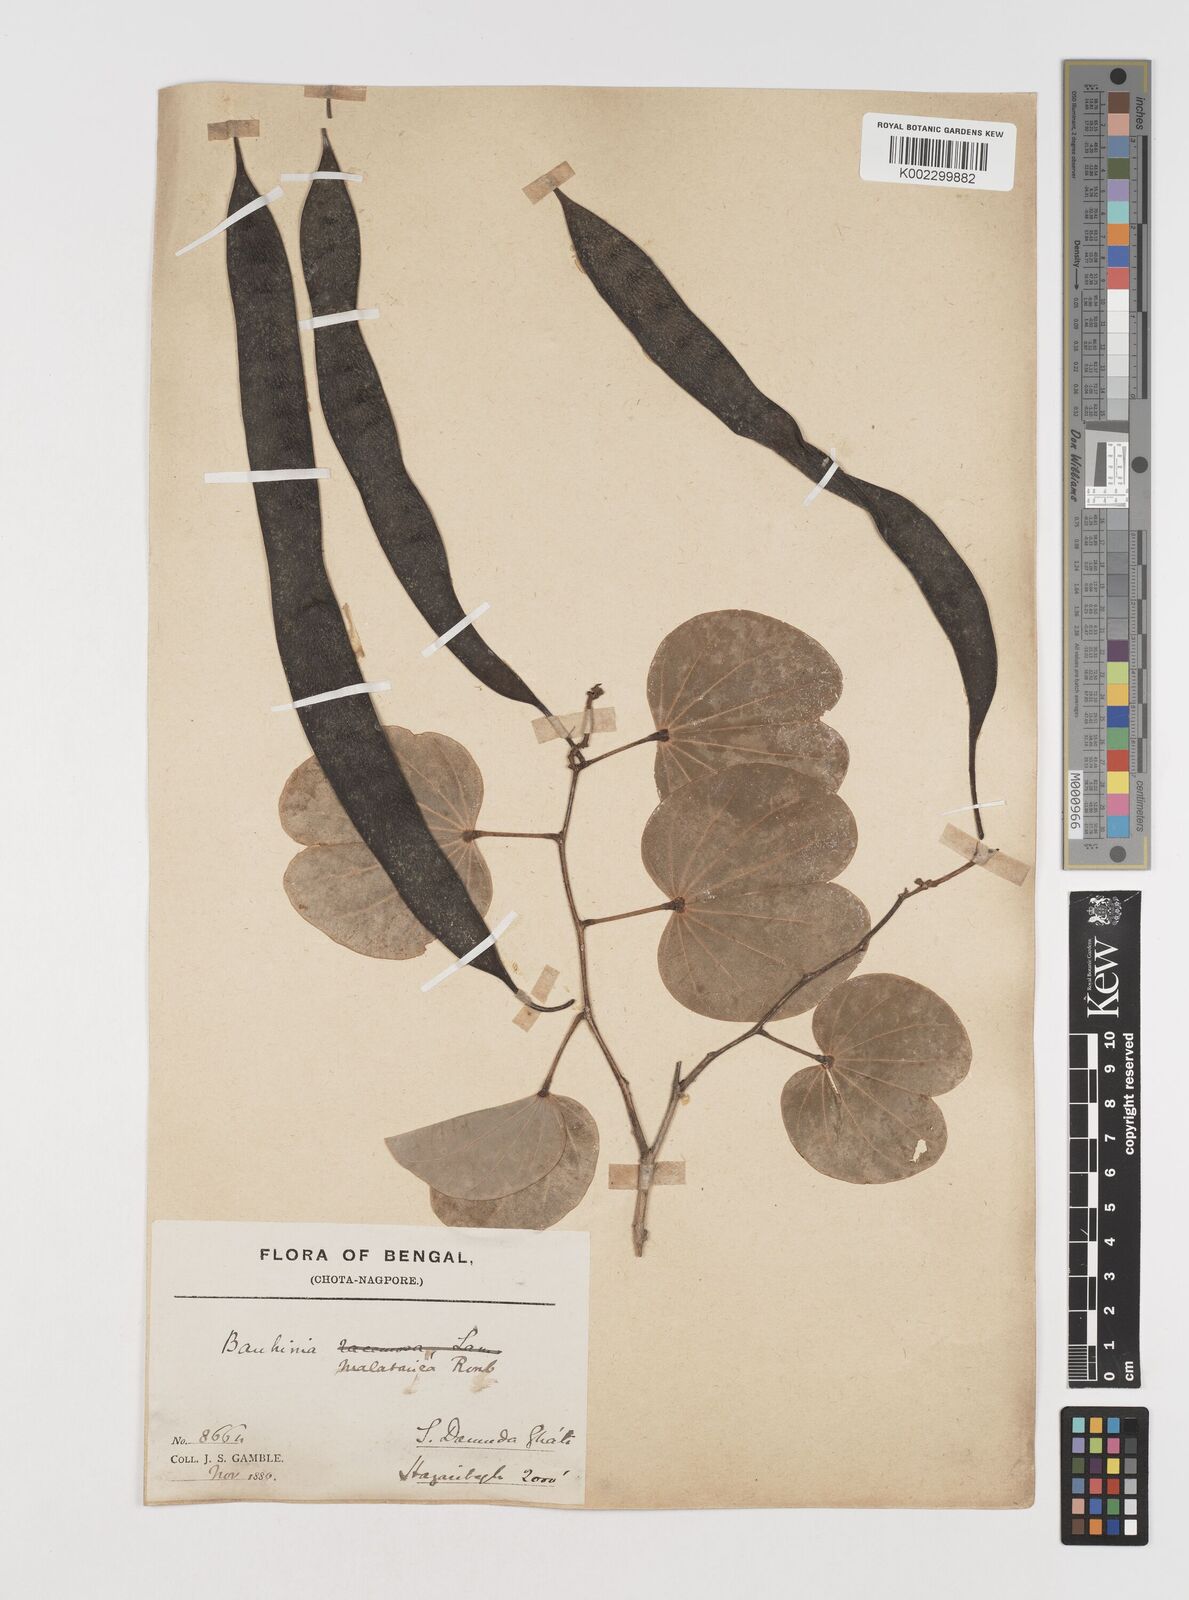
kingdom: Plantae
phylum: Tracheophyta
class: Magnoliopsida
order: Fabales
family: Fabaceae
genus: Piliostigma
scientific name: Piliostigma malabaricum
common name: Malabar bauhinia
